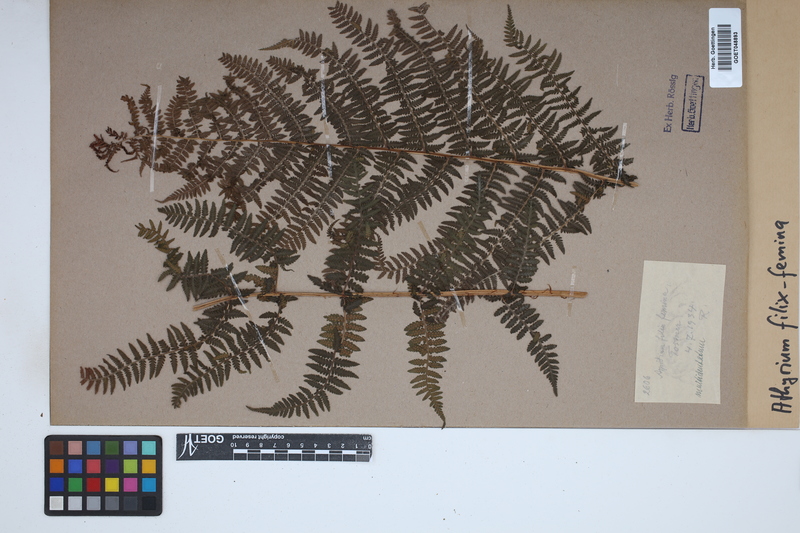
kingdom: Plantae
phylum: Tracheophyta
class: Polypodiopsida
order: Polypodiales
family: Athyriaceae
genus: Athyrium
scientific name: Athyrium filix-femina
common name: Lady fern
